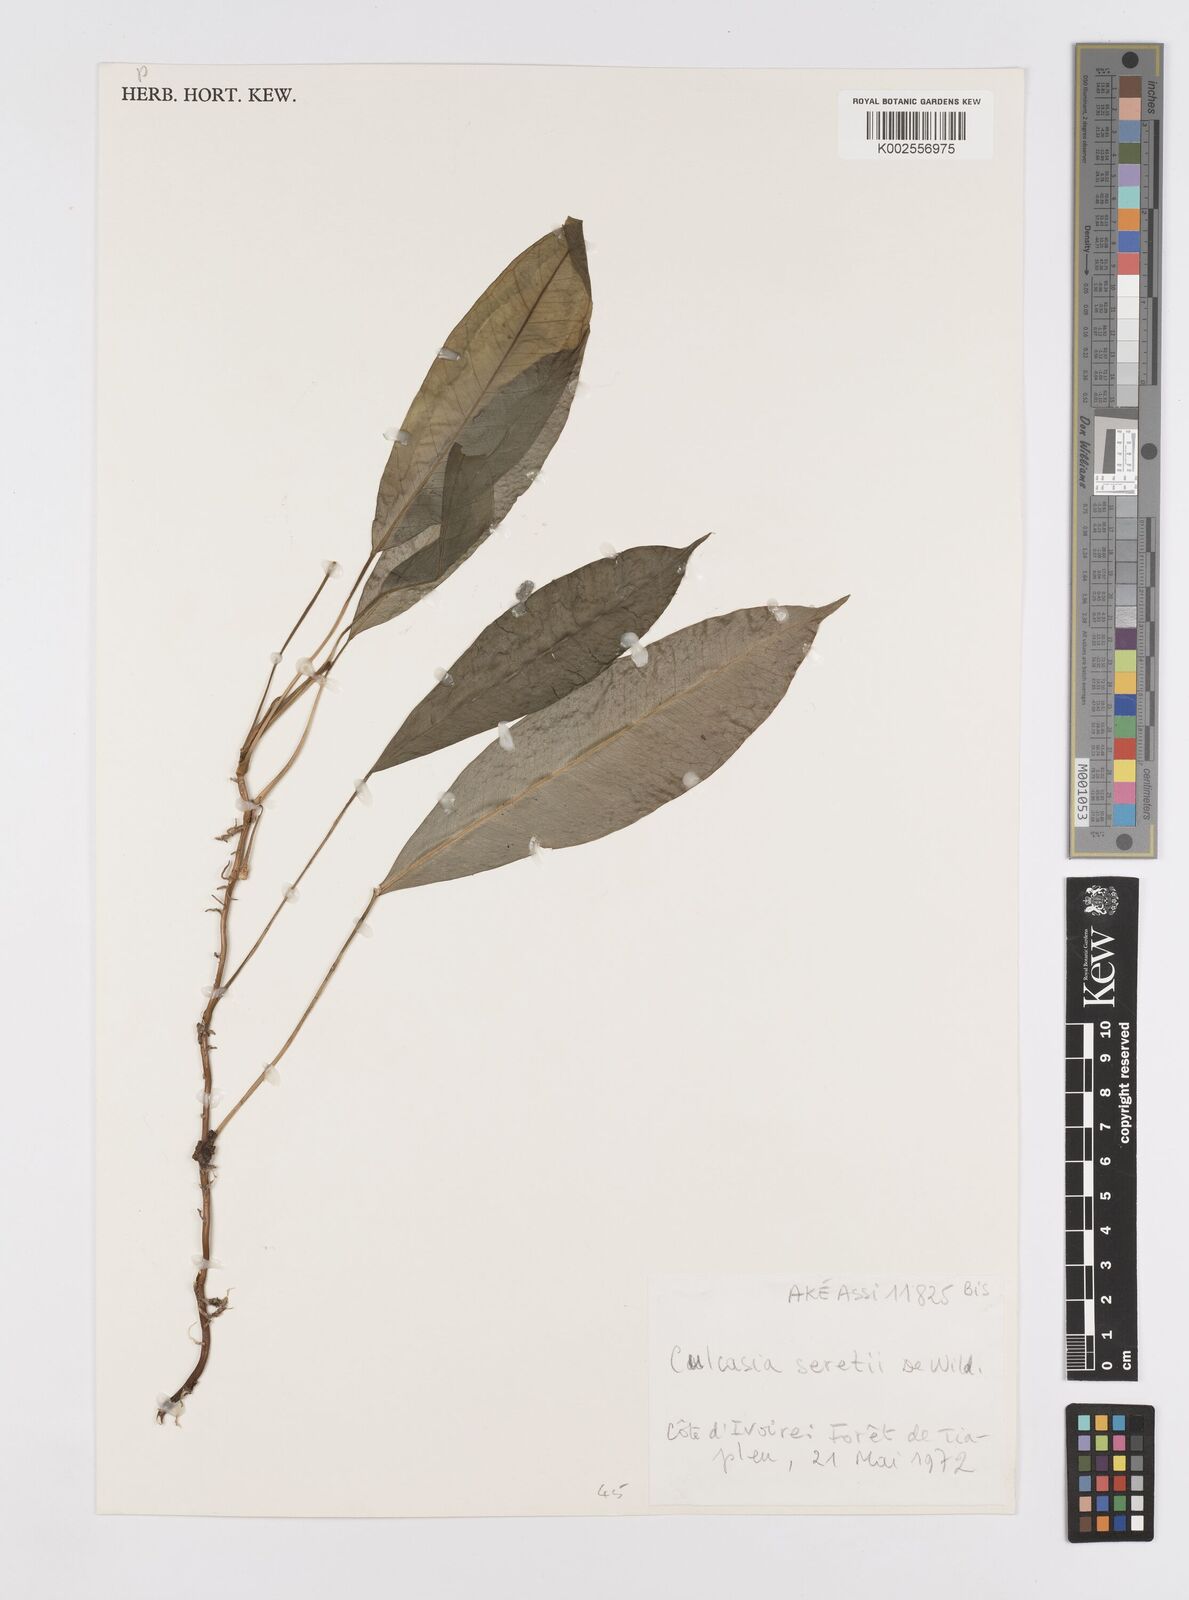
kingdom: Plantae
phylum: Tracheophyta
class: Liliopsida
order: Alismatales
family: Araceae
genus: Culcasia
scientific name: Culcasia seretii
